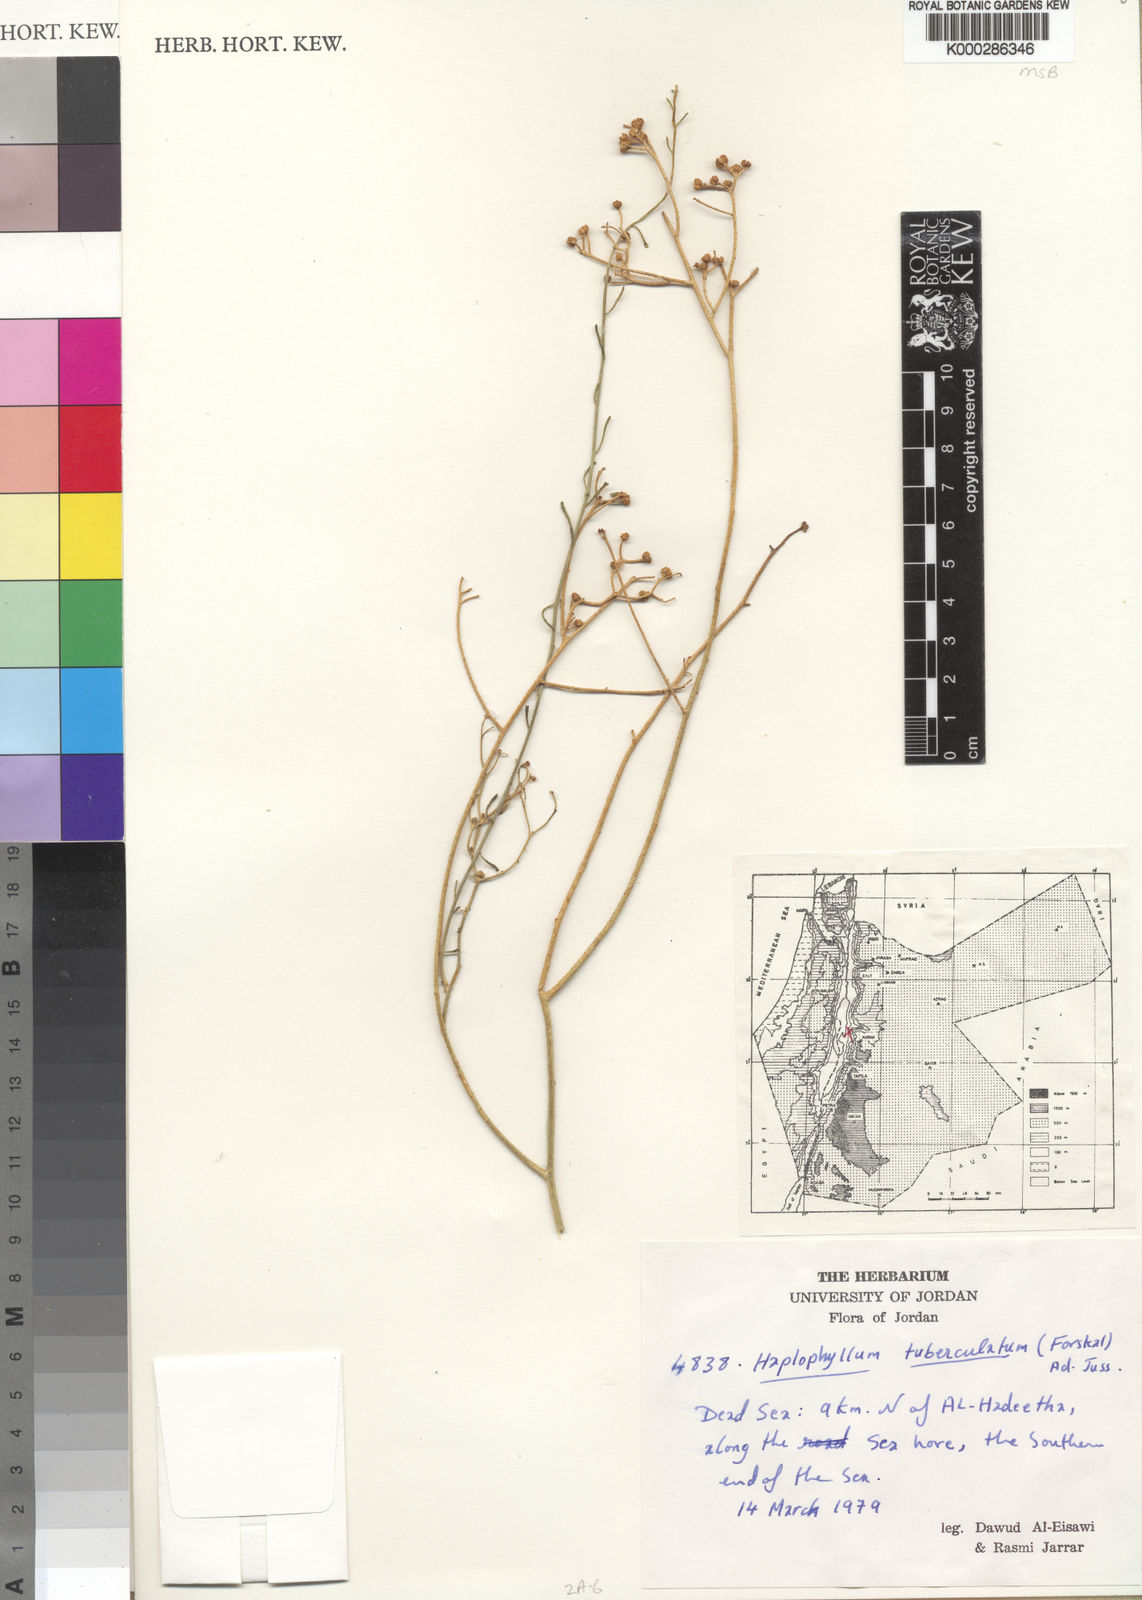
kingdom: Plantae
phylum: Tracheophyta
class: Magnoliopsida
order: Sapindales
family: Rutaceae
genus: Haplophyllum
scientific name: Haplophyllum tuberculatum
